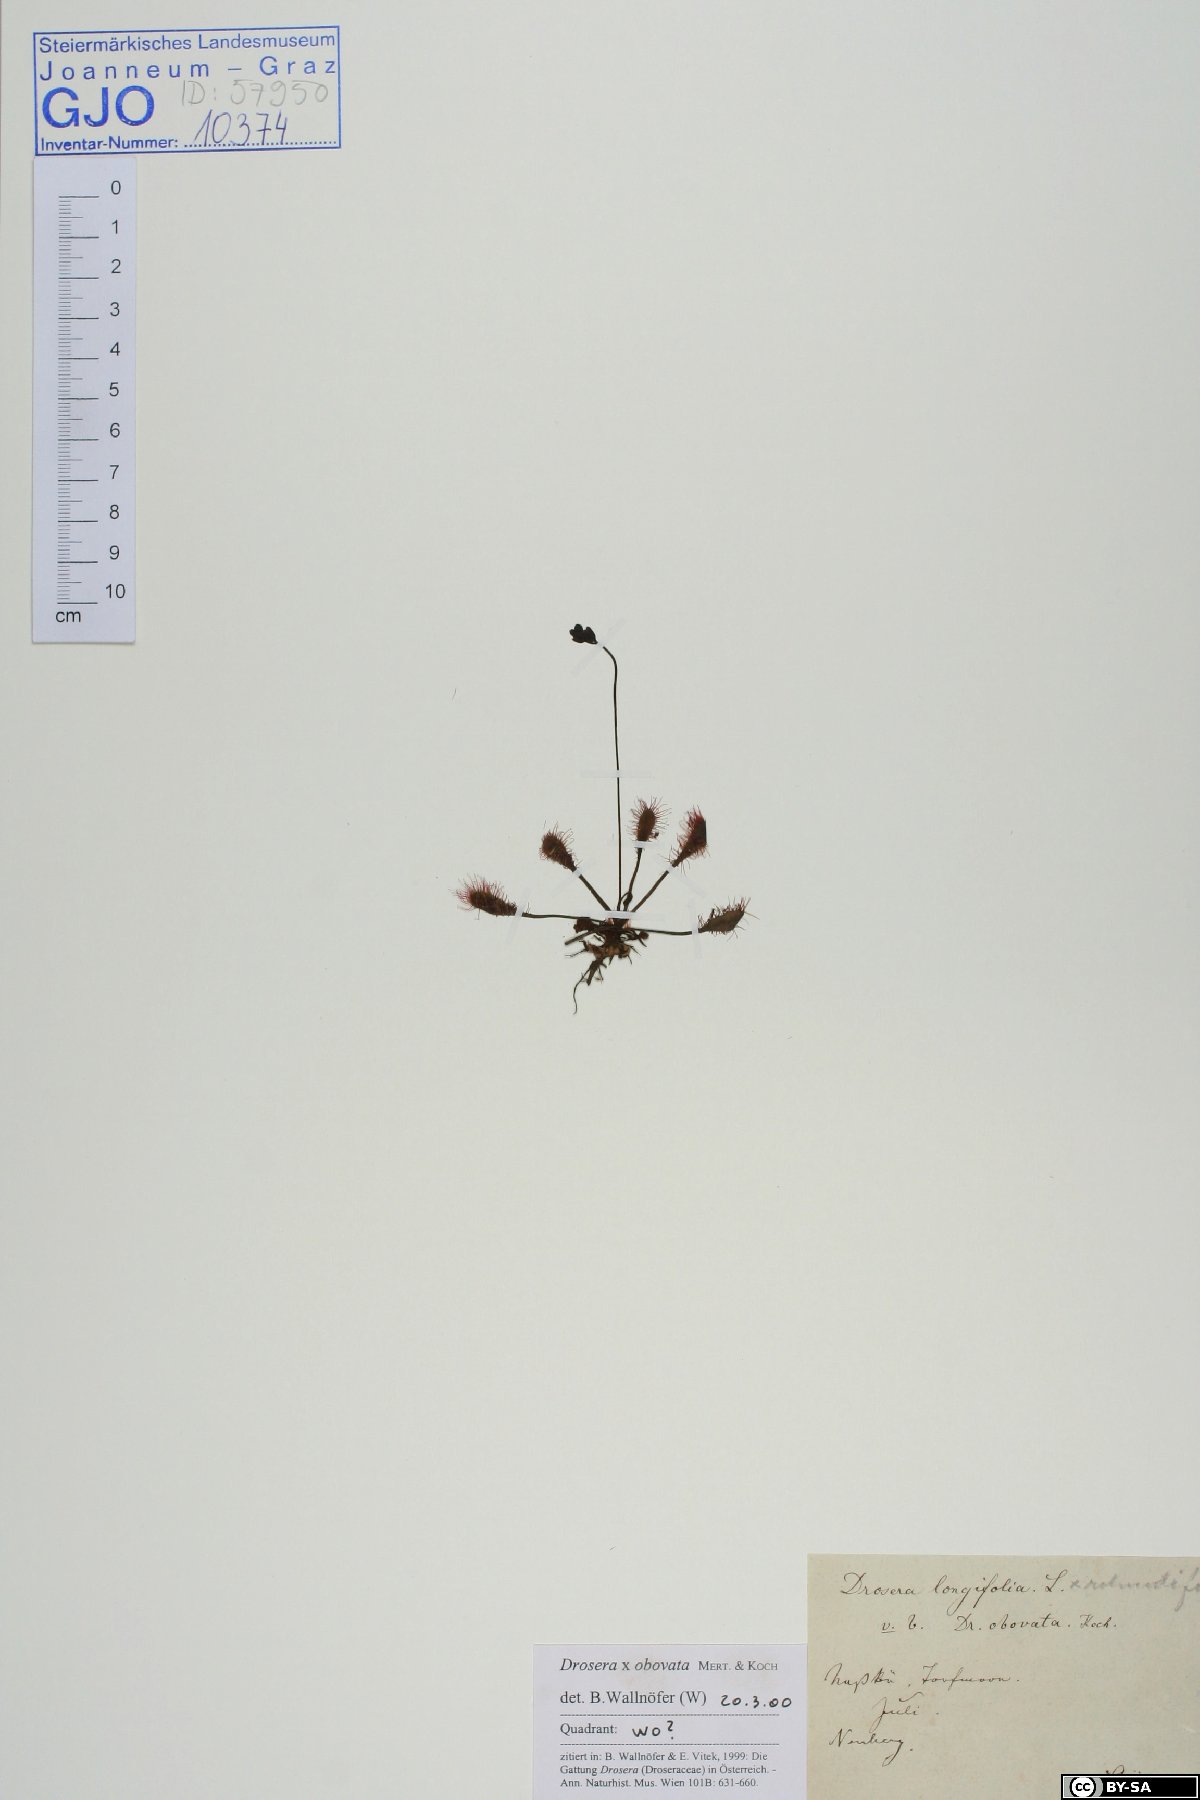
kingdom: Plantae
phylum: Tracheophyta
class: Magnoliopsida
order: Caryophyllales
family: Droseraceae
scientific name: Droseraceae
